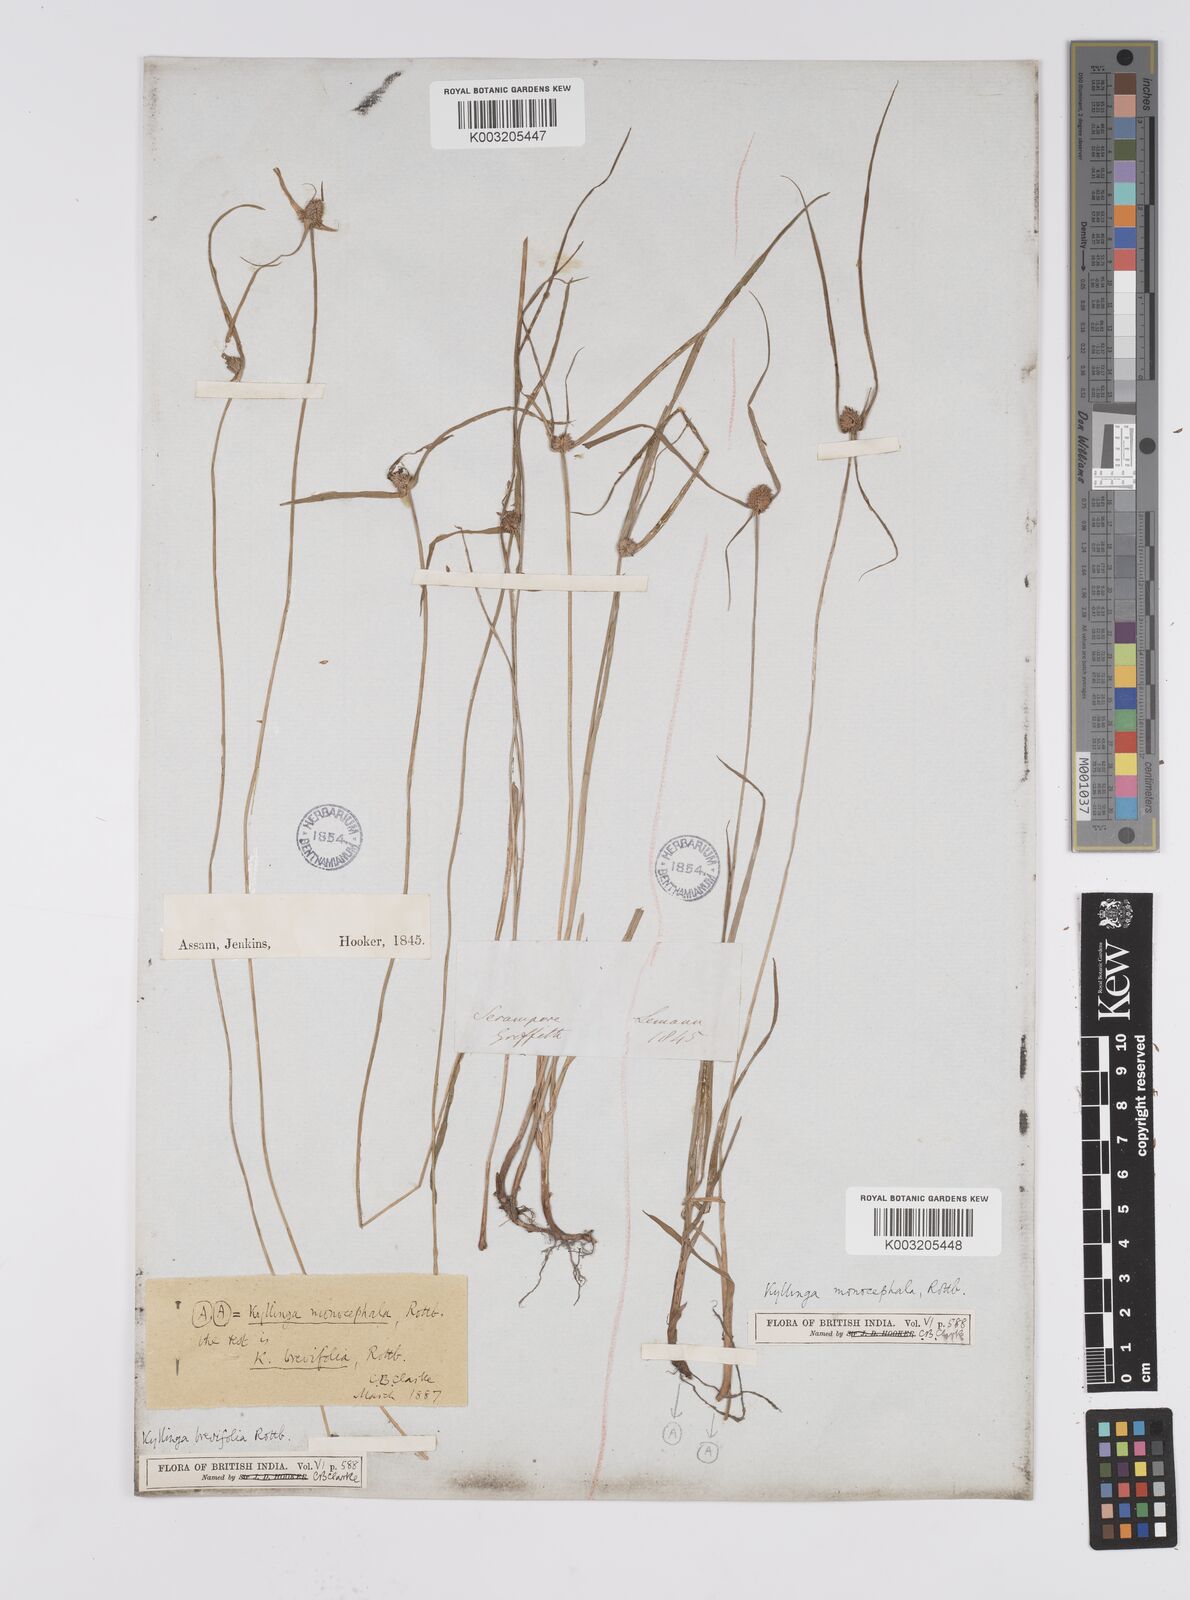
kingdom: Plantae
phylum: Tracheophyta
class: Liliopsida
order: Poales
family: Cyperaceae
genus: Cyperus
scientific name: Cyperus nemoralis
